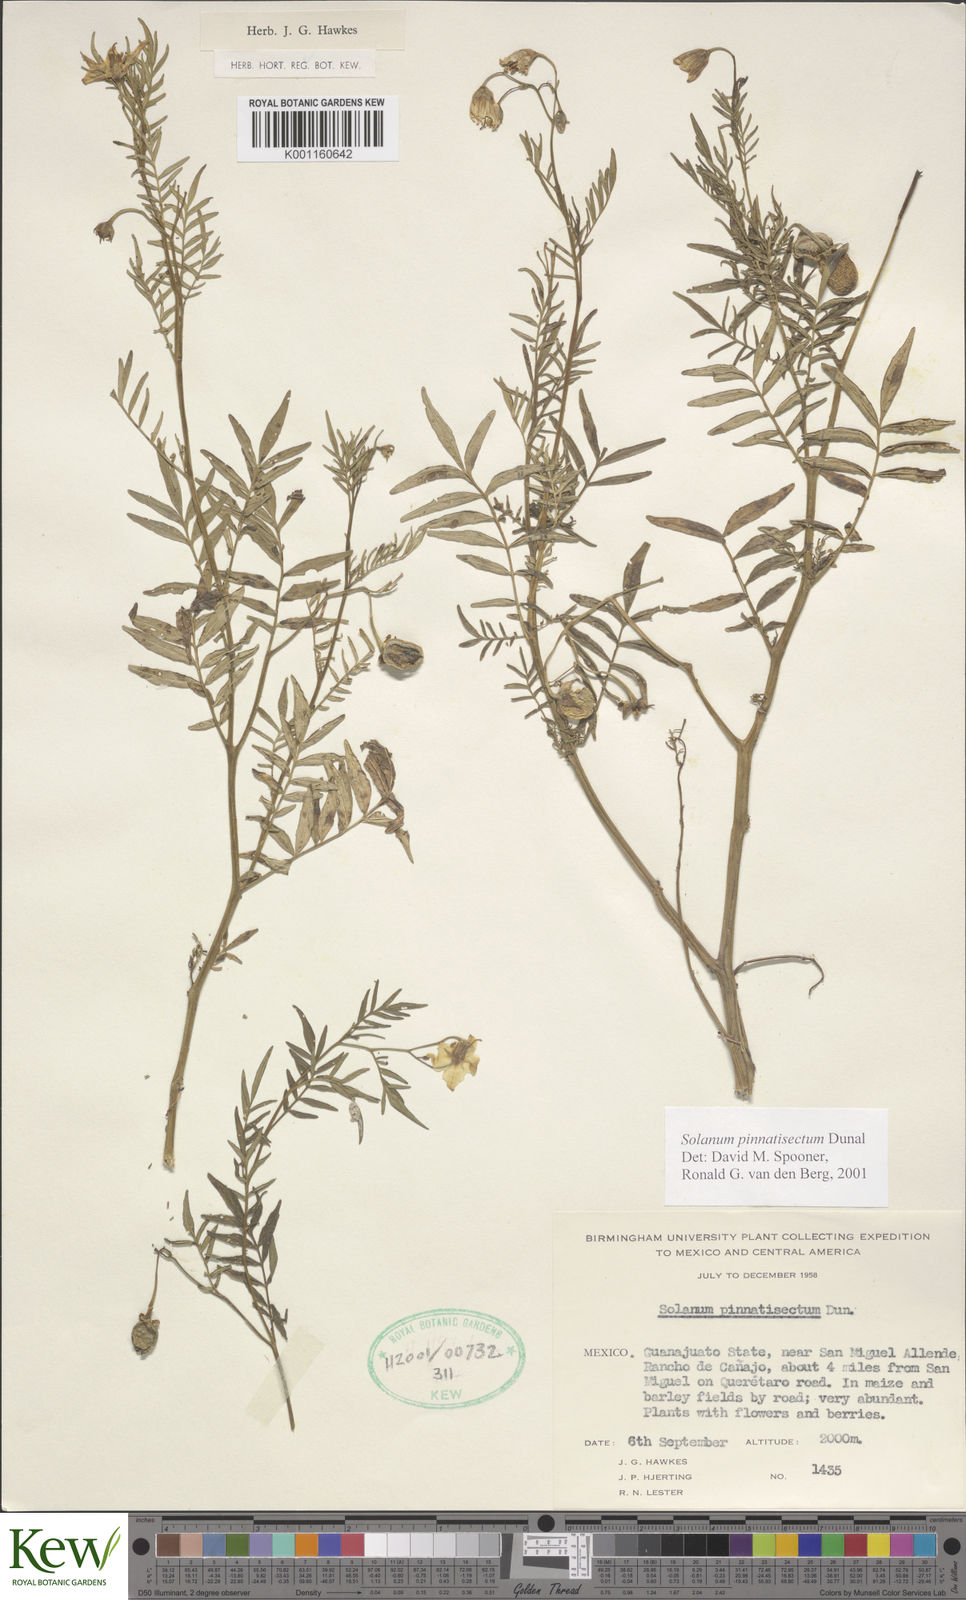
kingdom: Plantae
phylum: Tracheophyta
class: Magnoliopsida
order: Solanales
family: Solanaceae
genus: Solanum
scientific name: Solanum pinnatisectum
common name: Tansyleaf nightshade
